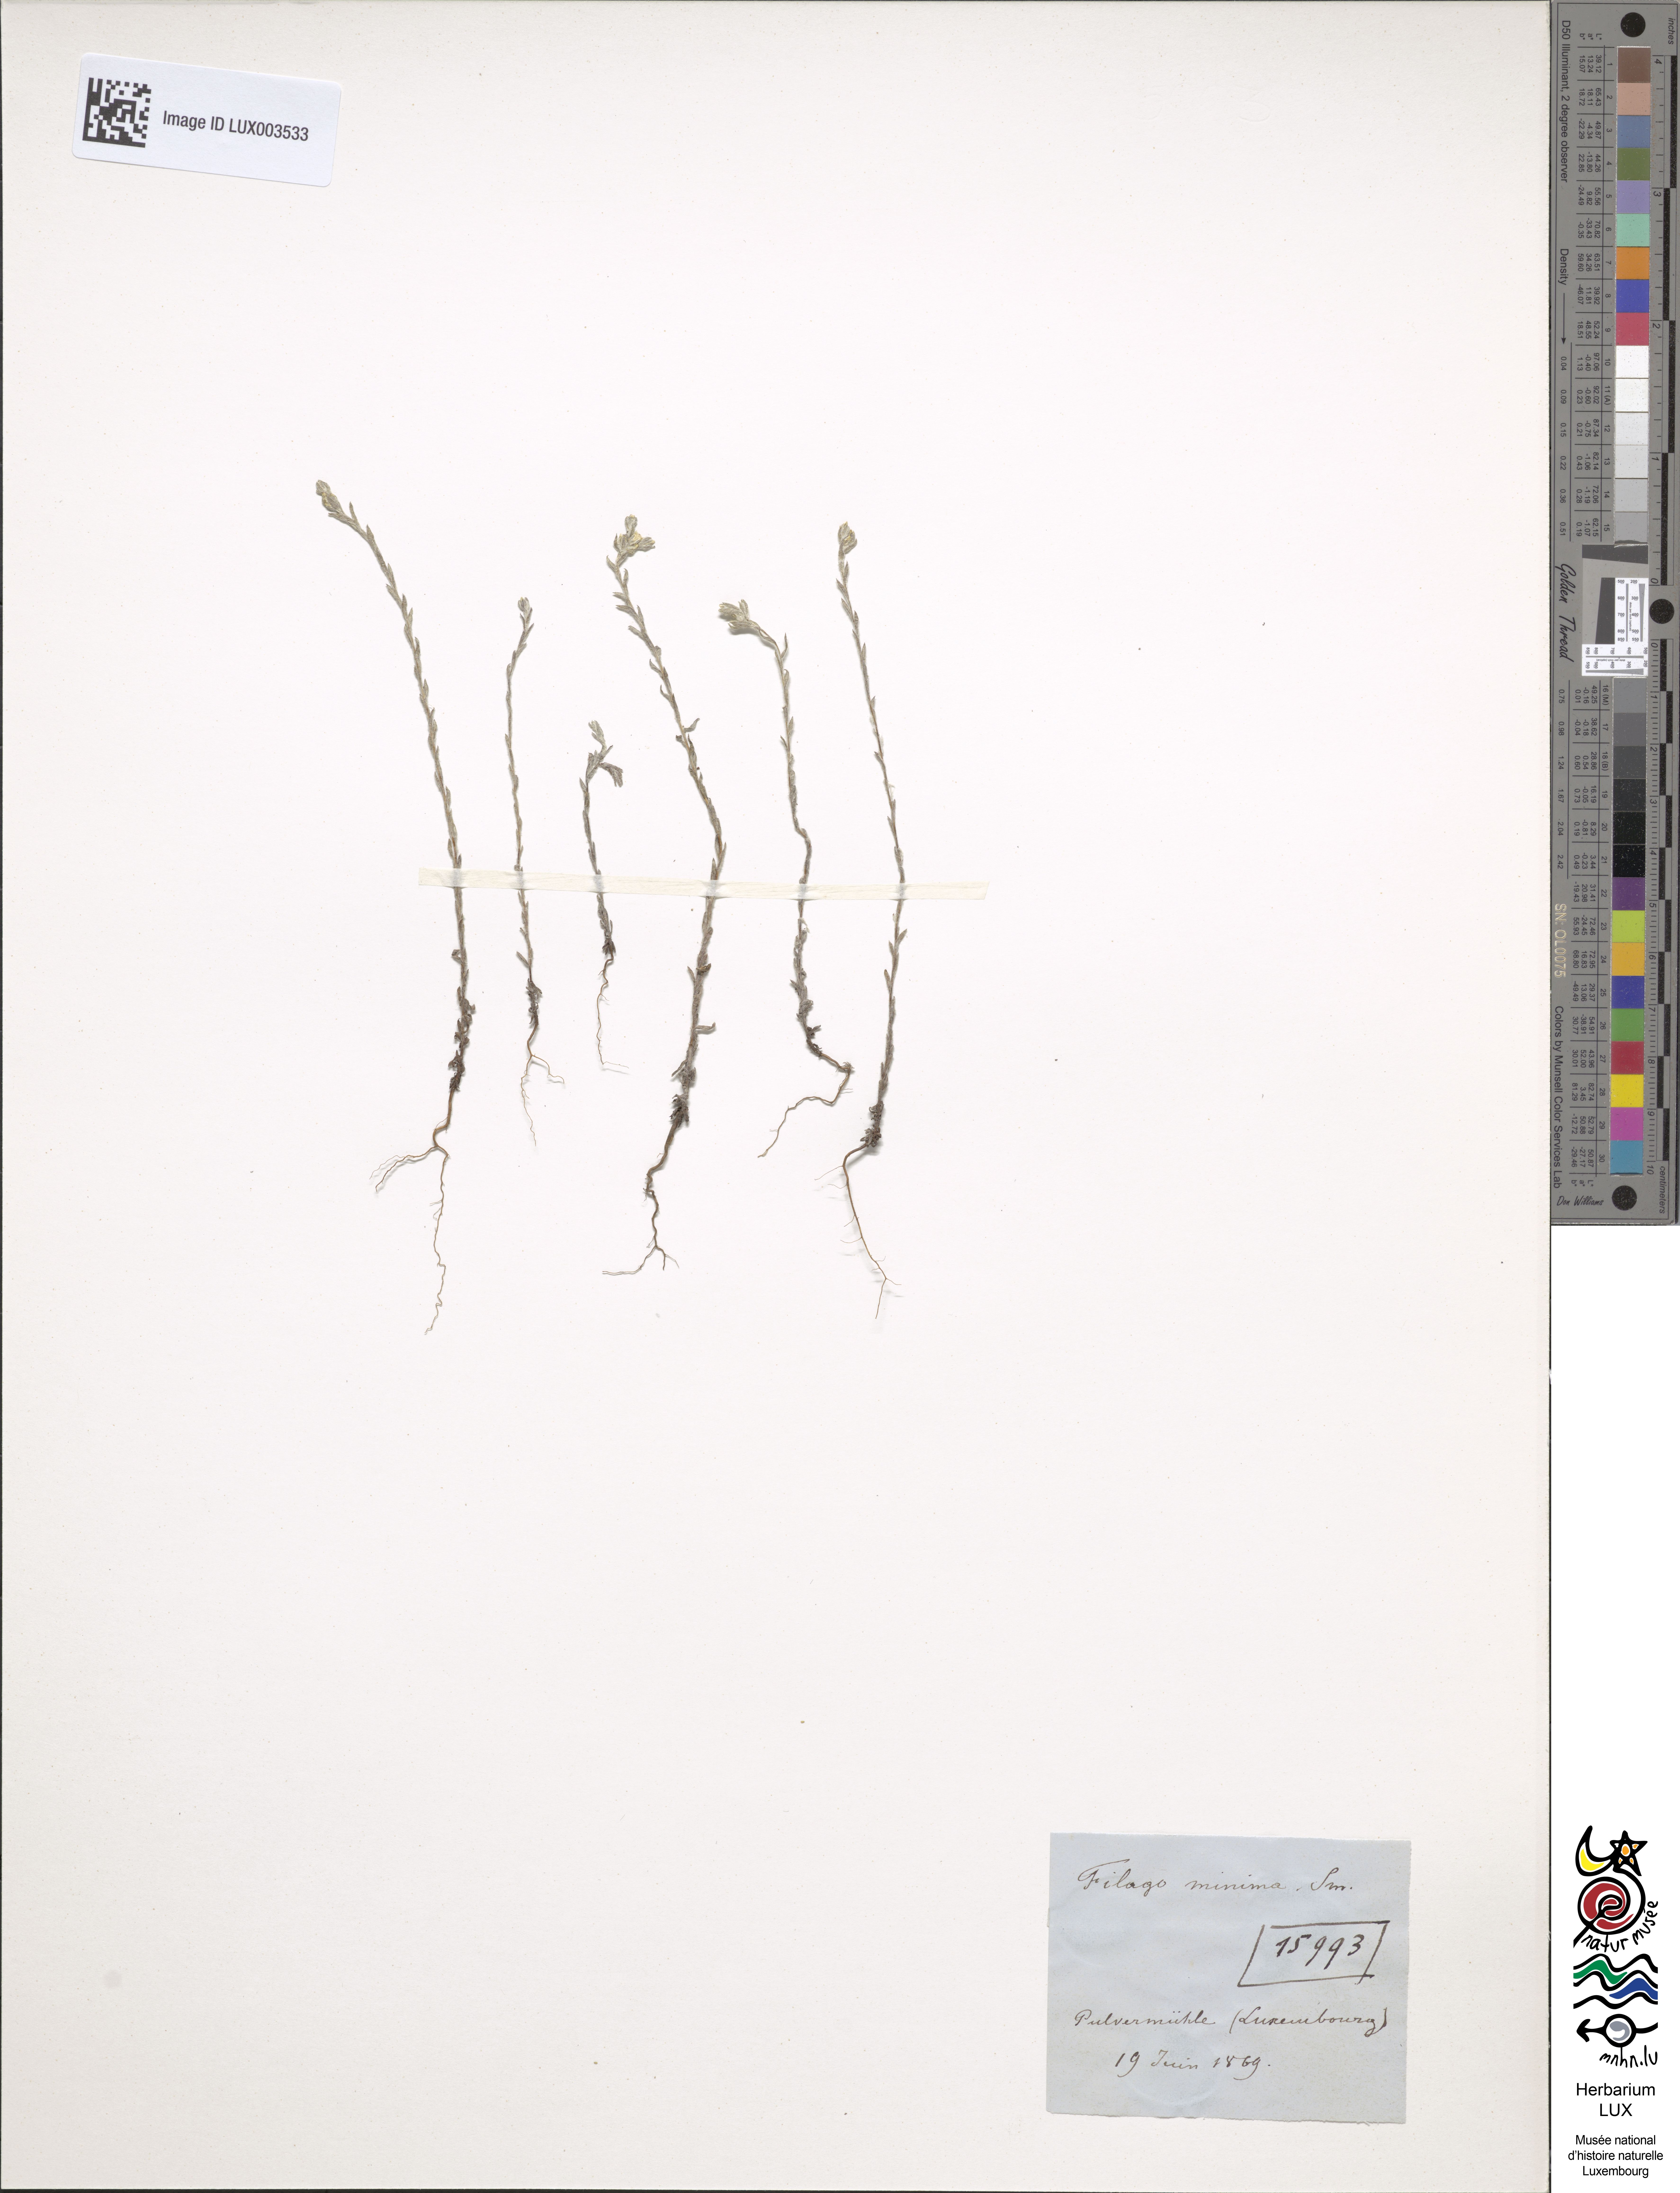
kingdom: Plantae
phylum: Tracheophyta
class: Magnoliopsida
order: Asterales
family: Asteraceae
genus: Logfia
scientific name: Logfia minima
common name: Little cottonrose
